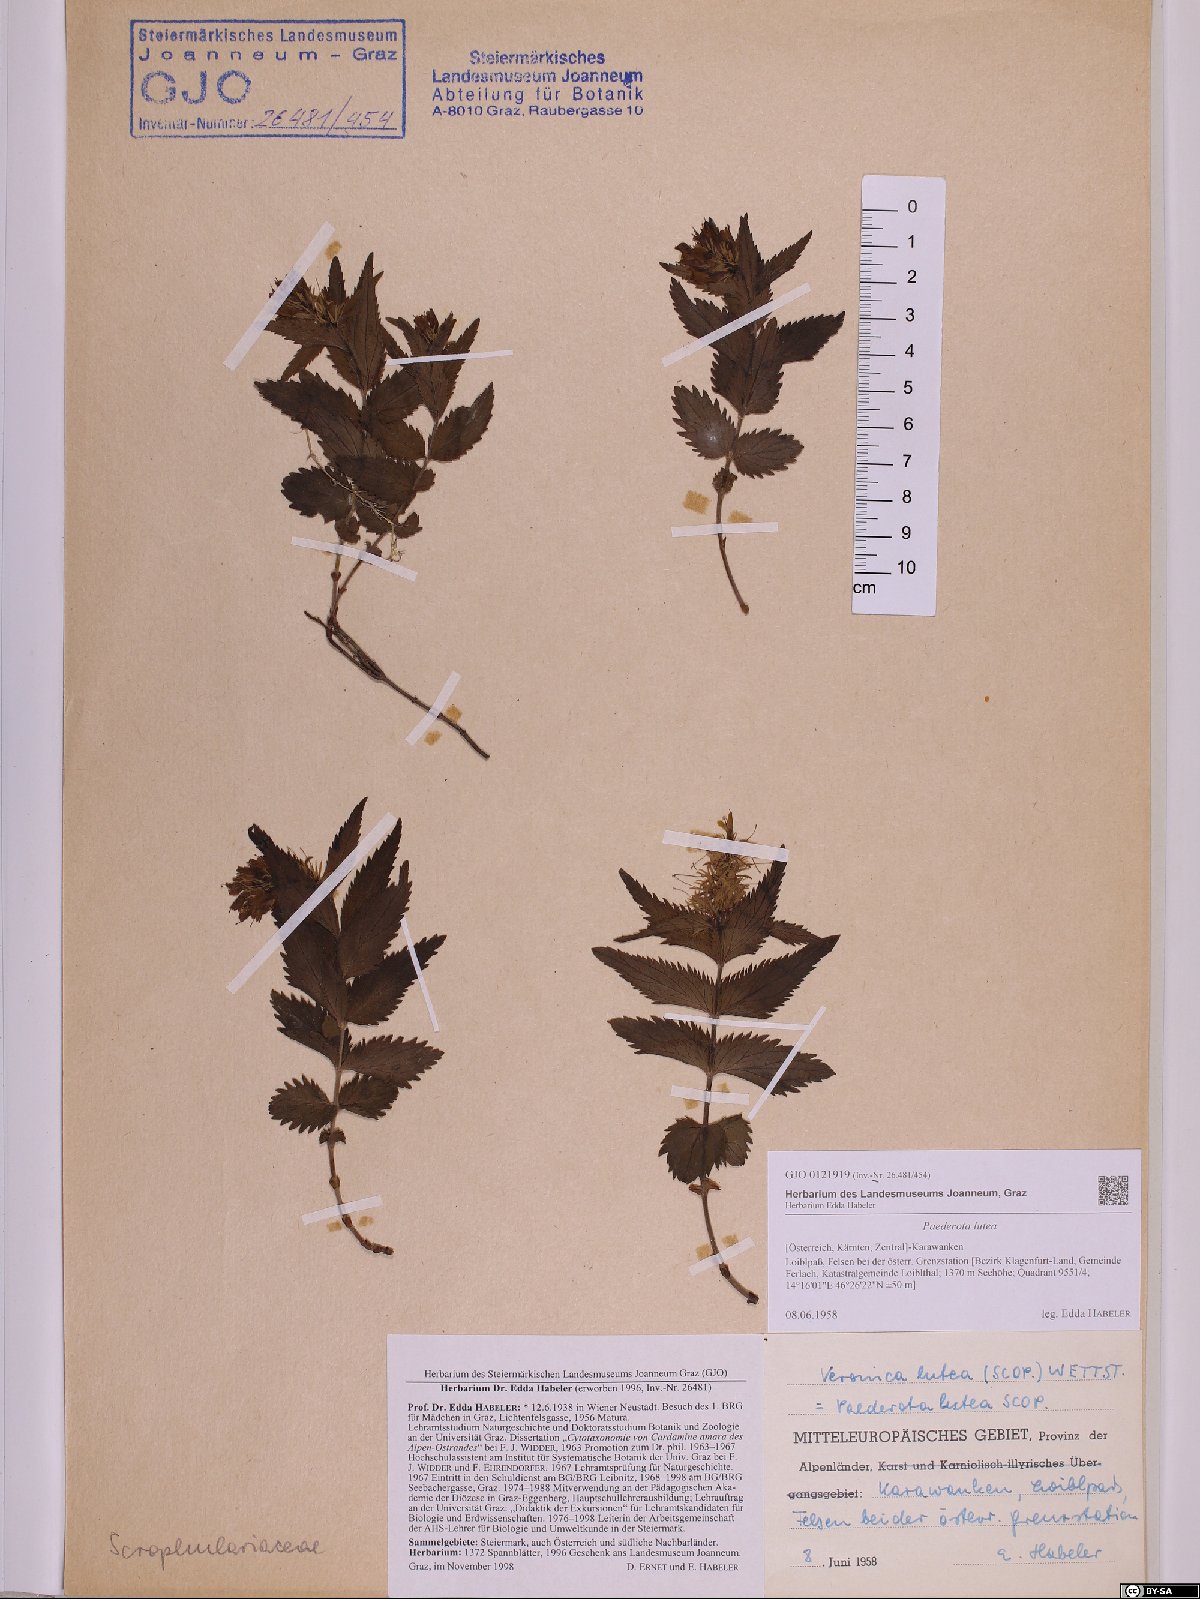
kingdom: Plantae
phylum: Tracheophyta
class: Magnoliopsida
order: Lamiales
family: Plantaginaceae
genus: Paederota
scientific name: Paederota lutea
